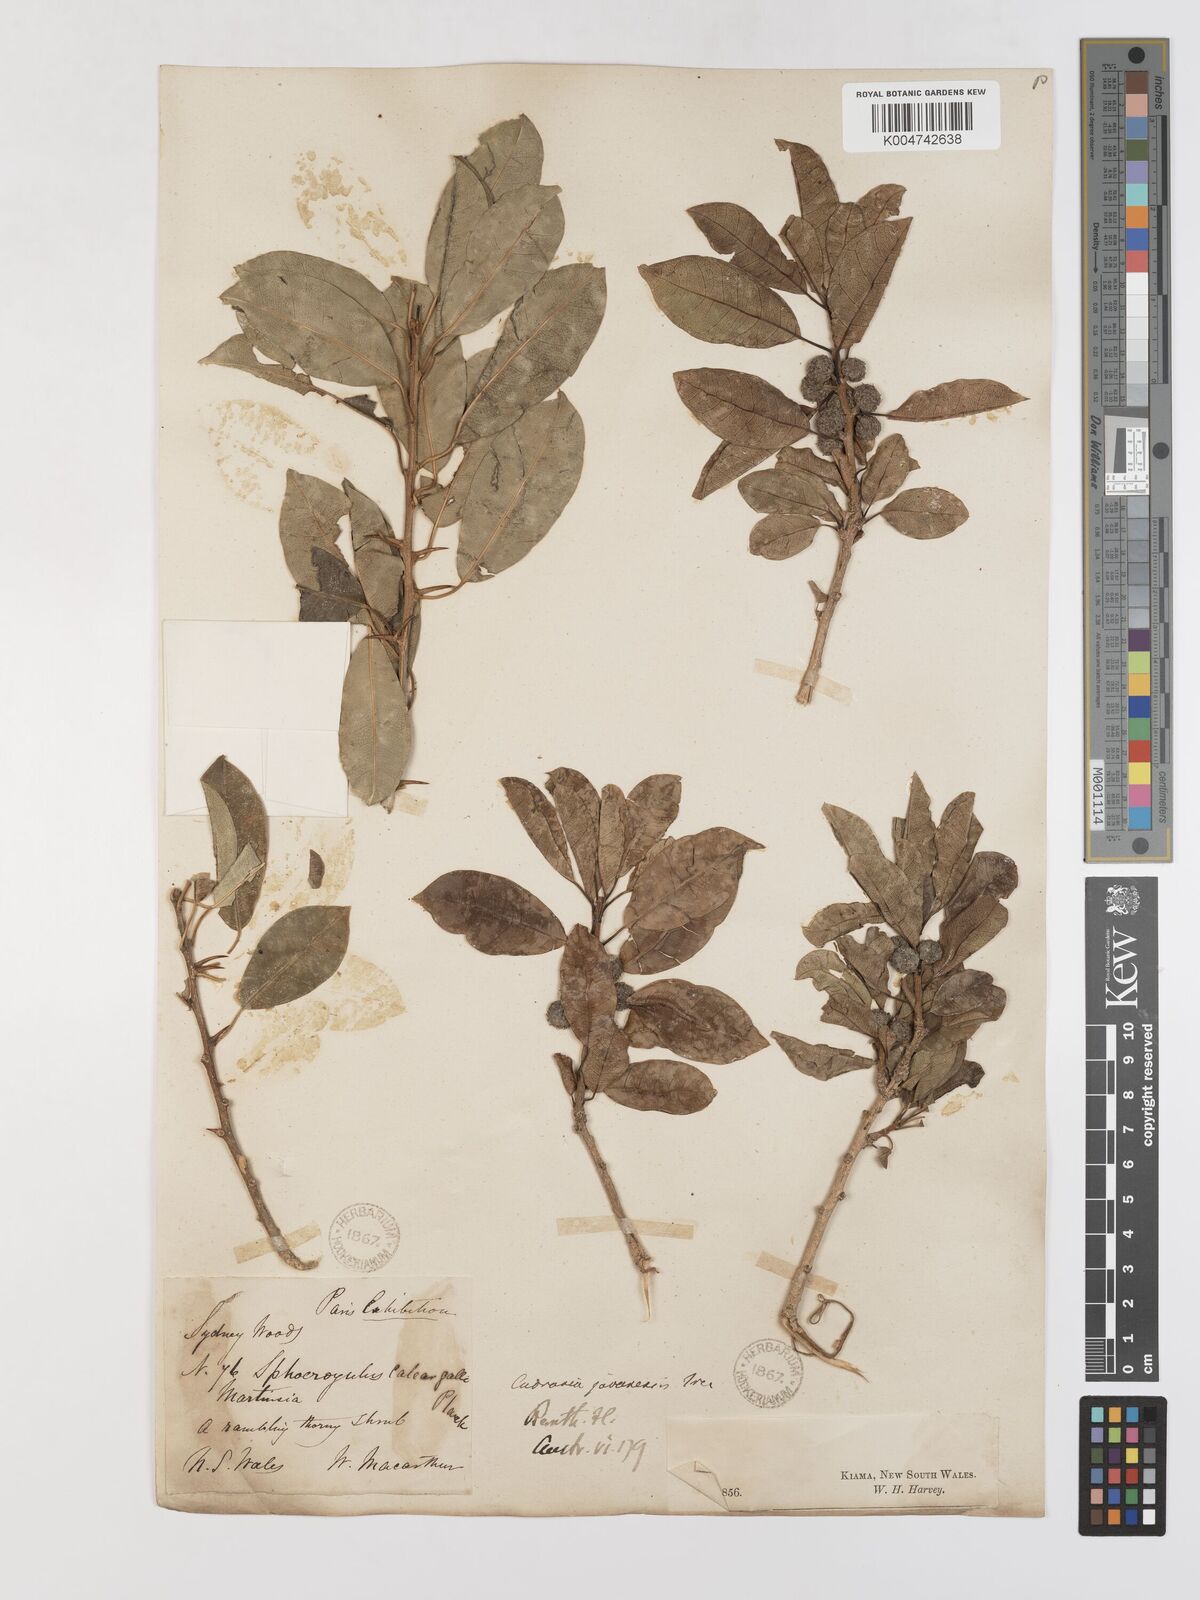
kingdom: Plantae
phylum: Tracheophyta
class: Magnoliopsida
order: Rosales
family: Moraceae
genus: Maclura
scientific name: Maclura cochinchinensis
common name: Cockspurthorn
